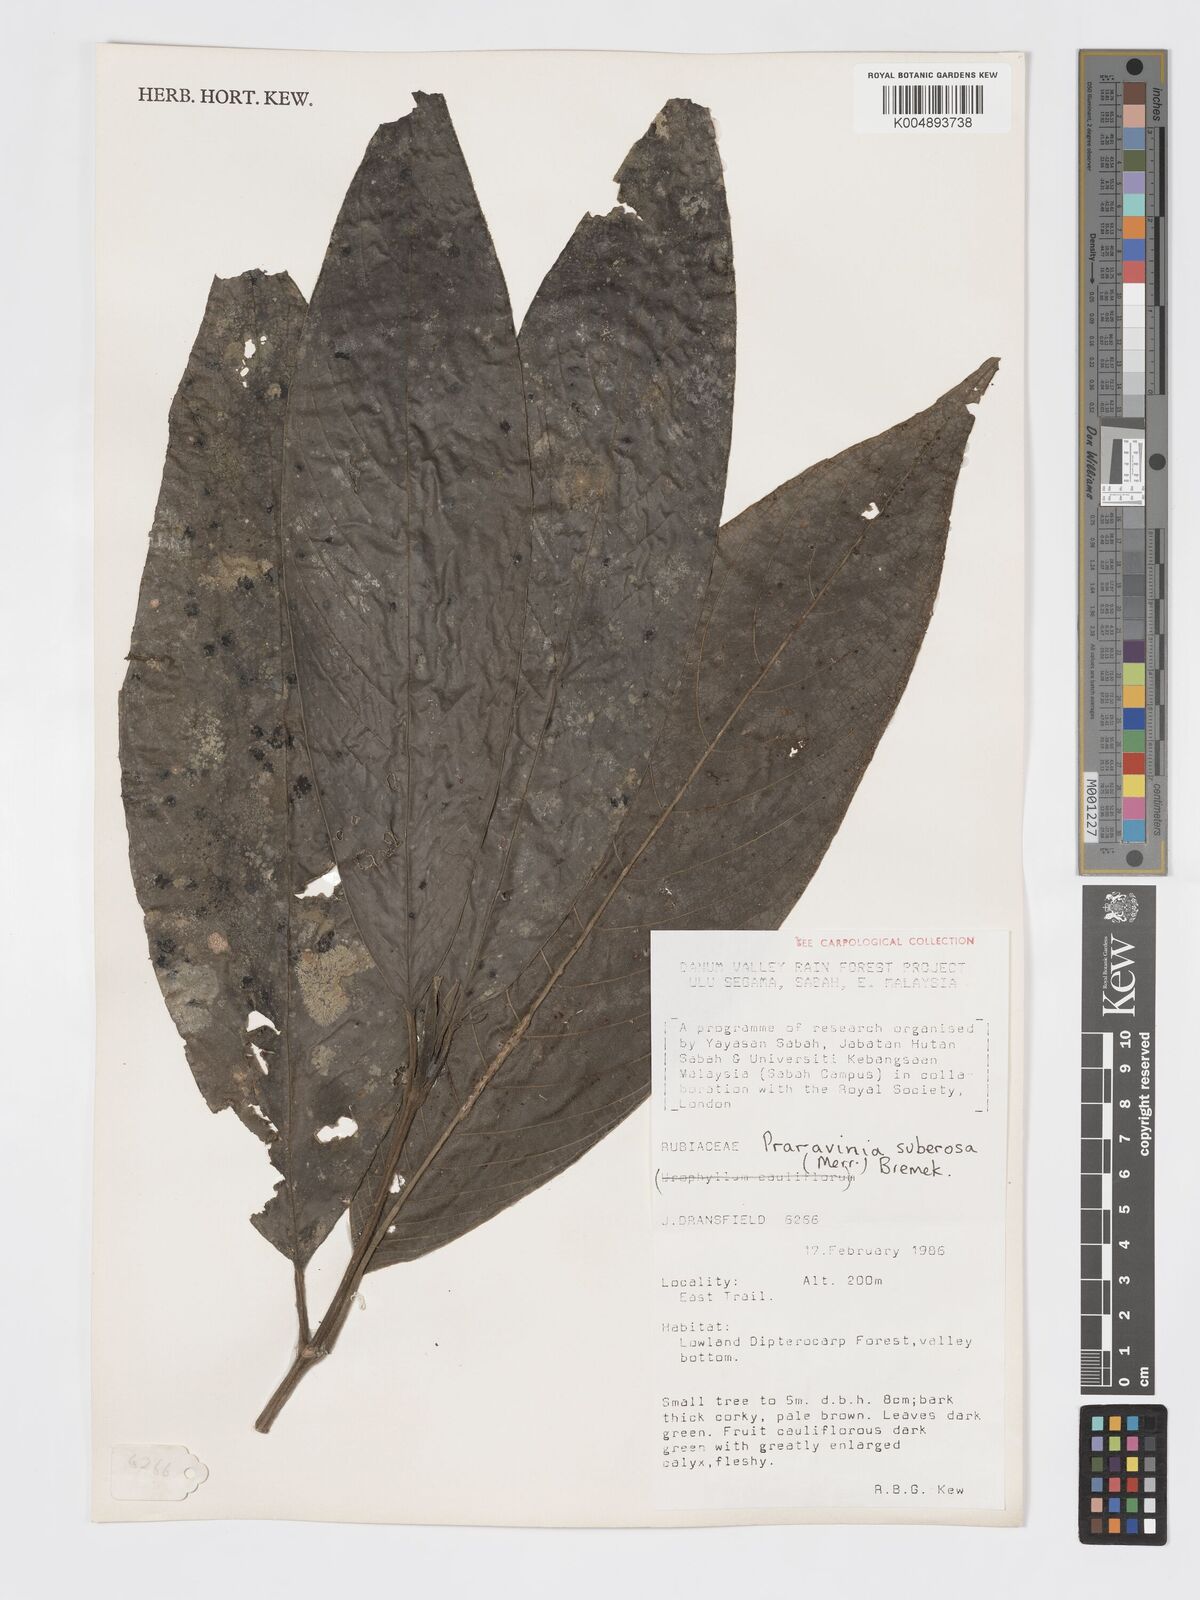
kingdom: Plantae
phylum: Tracheophyta
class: Magnoliopsida
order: Gentianales
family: Rubiaceae
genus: Praravinia
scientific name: Praravinia suberosa
